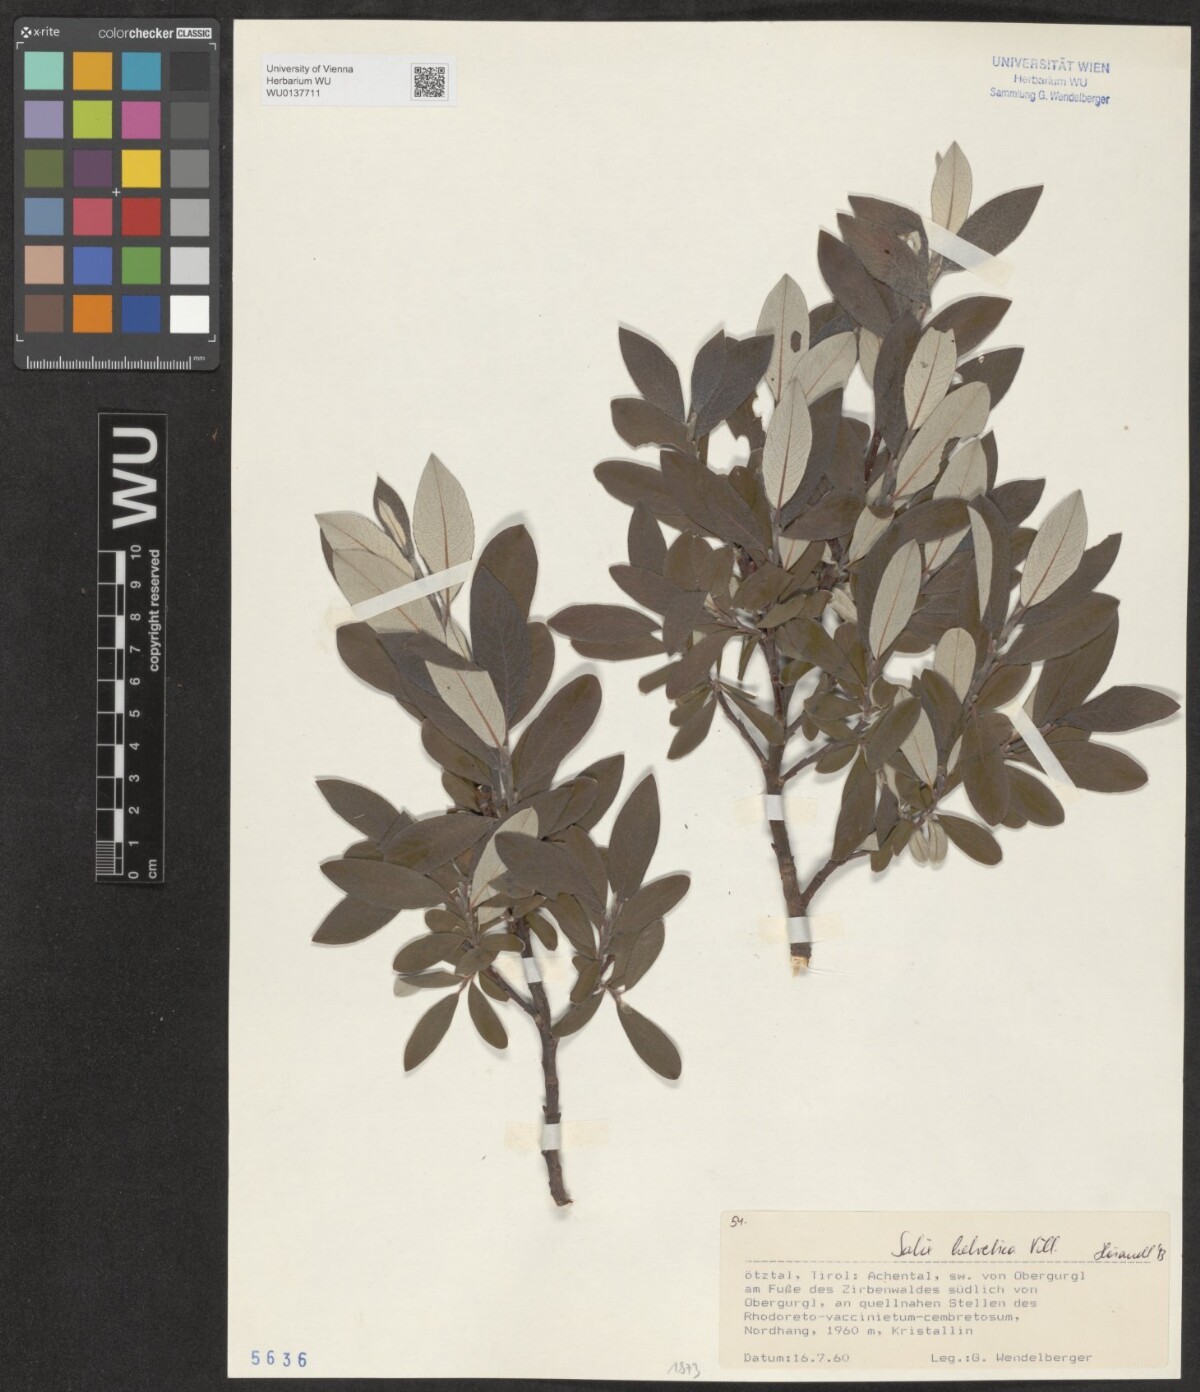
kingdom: Plantae
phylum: Tracheophyta
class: Magnoliopsida
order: Malpighiales
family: Salicaceae
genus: Salix
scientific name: Salix helvetica
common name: Swiss willow
